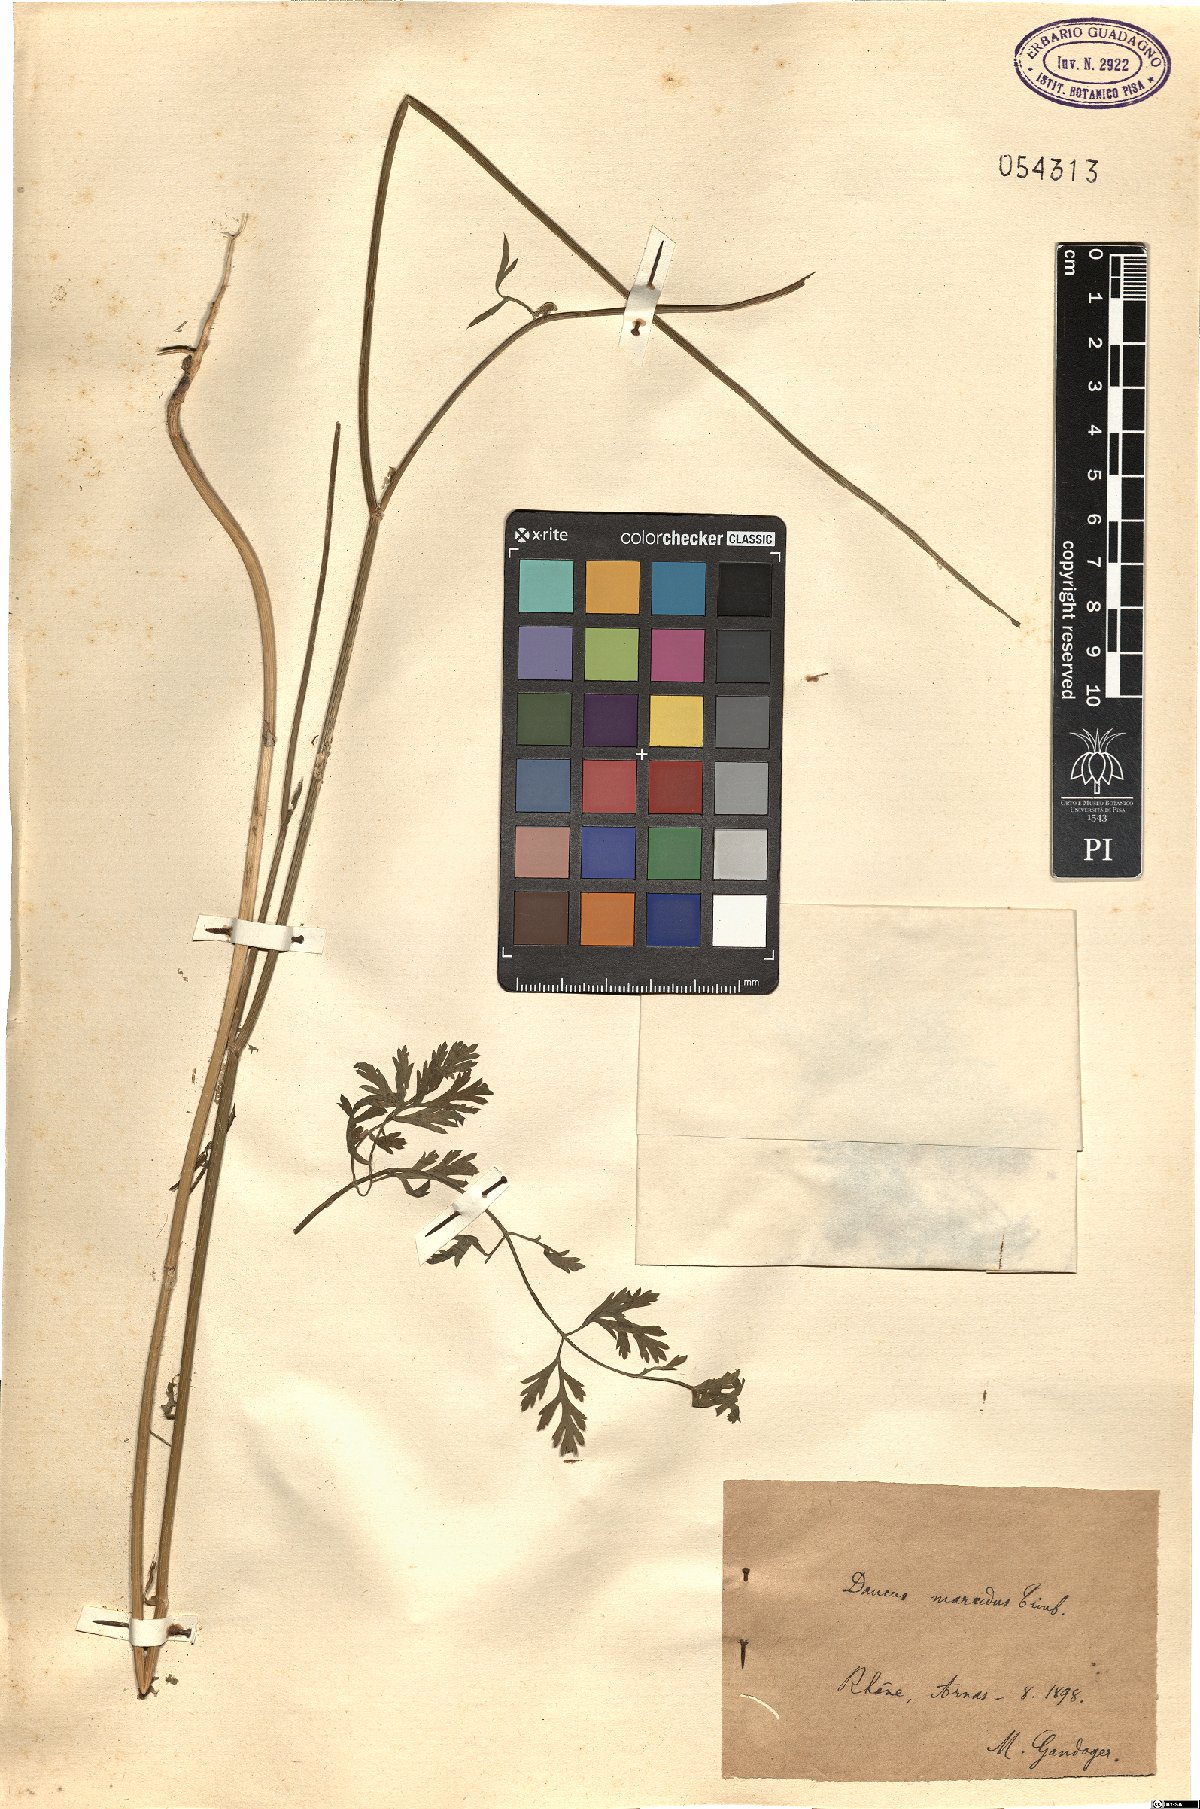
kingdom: Plantae
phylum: Tracheophyta
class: Magnoliopsida
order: Apiales
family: Apiaceae
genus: Daucus
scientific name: Daucus carota
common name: Wild carrot
